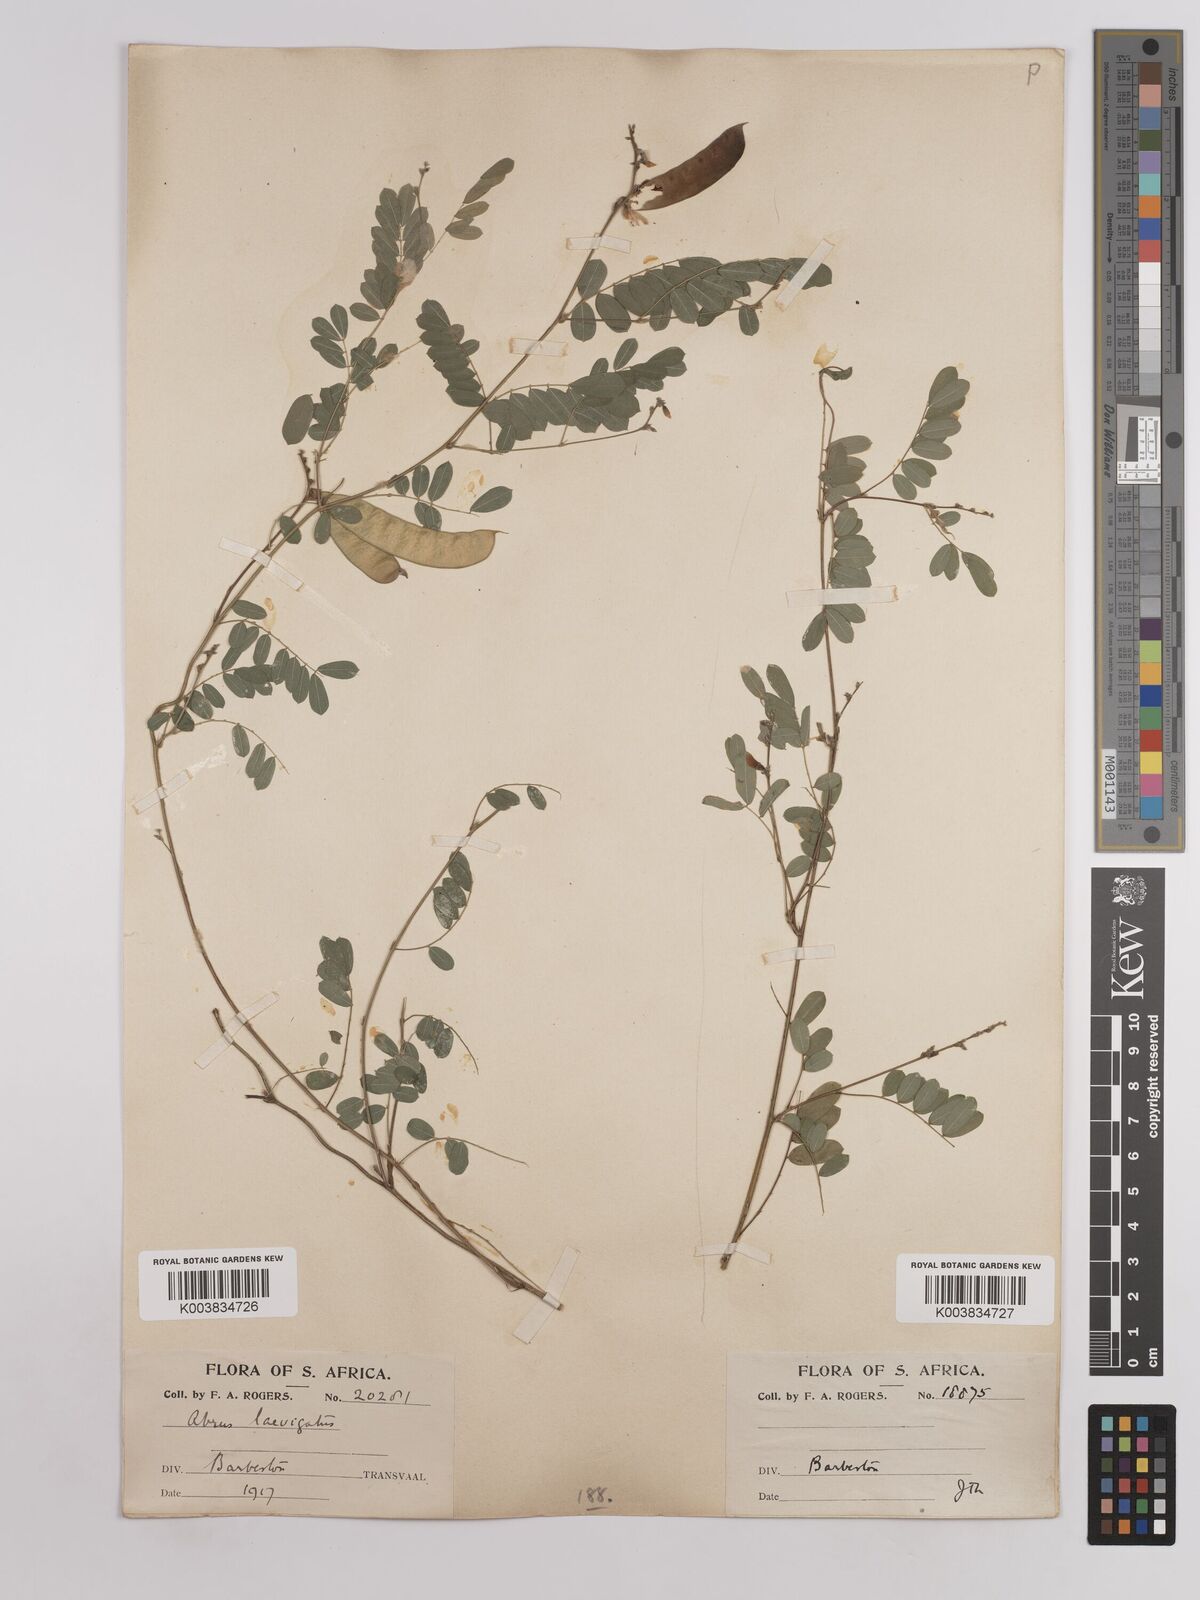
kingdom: Plantae
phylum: Tracheophyta
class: Magnoliopsida
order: Fabales
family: Fabaceae
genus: Abrus
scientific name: Abrus laevigatus
